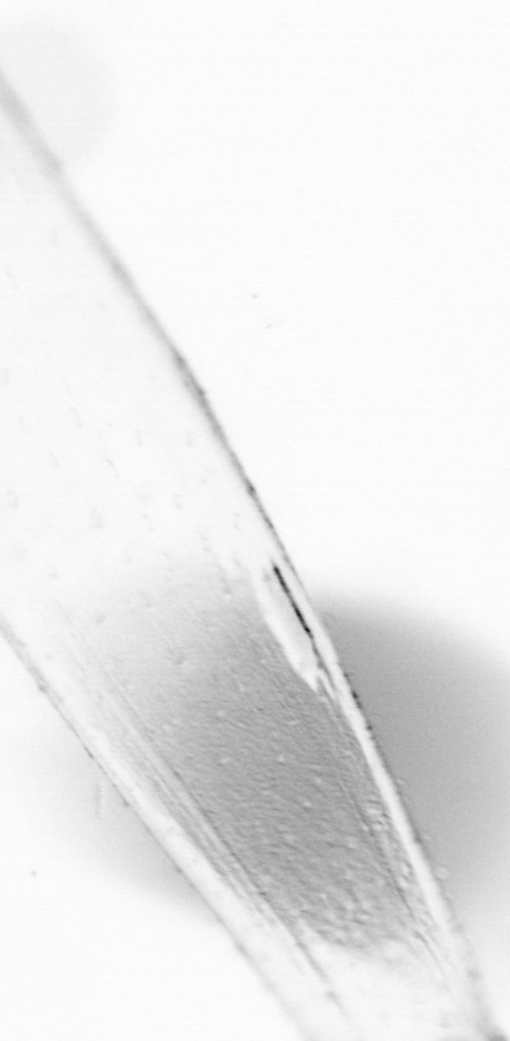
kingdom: Animalia
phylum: Chaetognatha
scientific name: Chaetognatha
